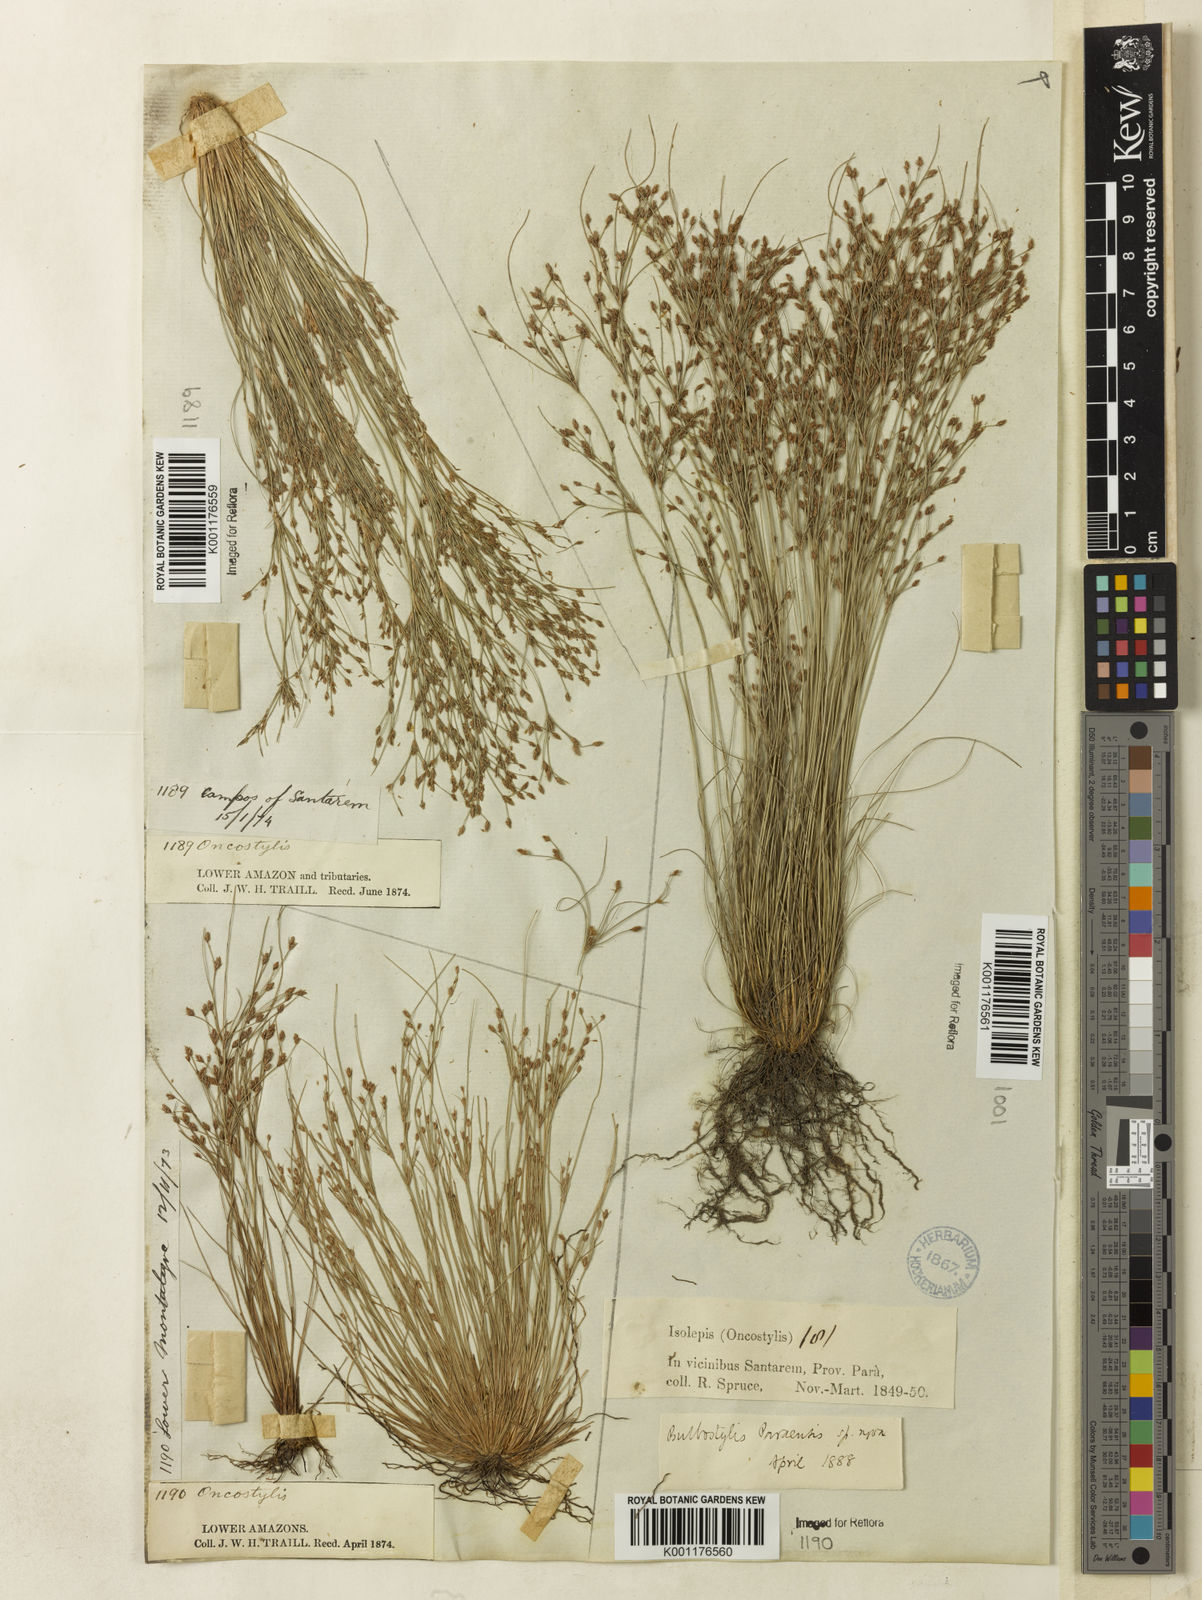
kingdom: Plantae
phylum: Tracheophyta
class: Liliopsida
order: Poales
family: Cyperaceae
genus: Bulbostylis
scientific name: Bulbostylis paraensis
